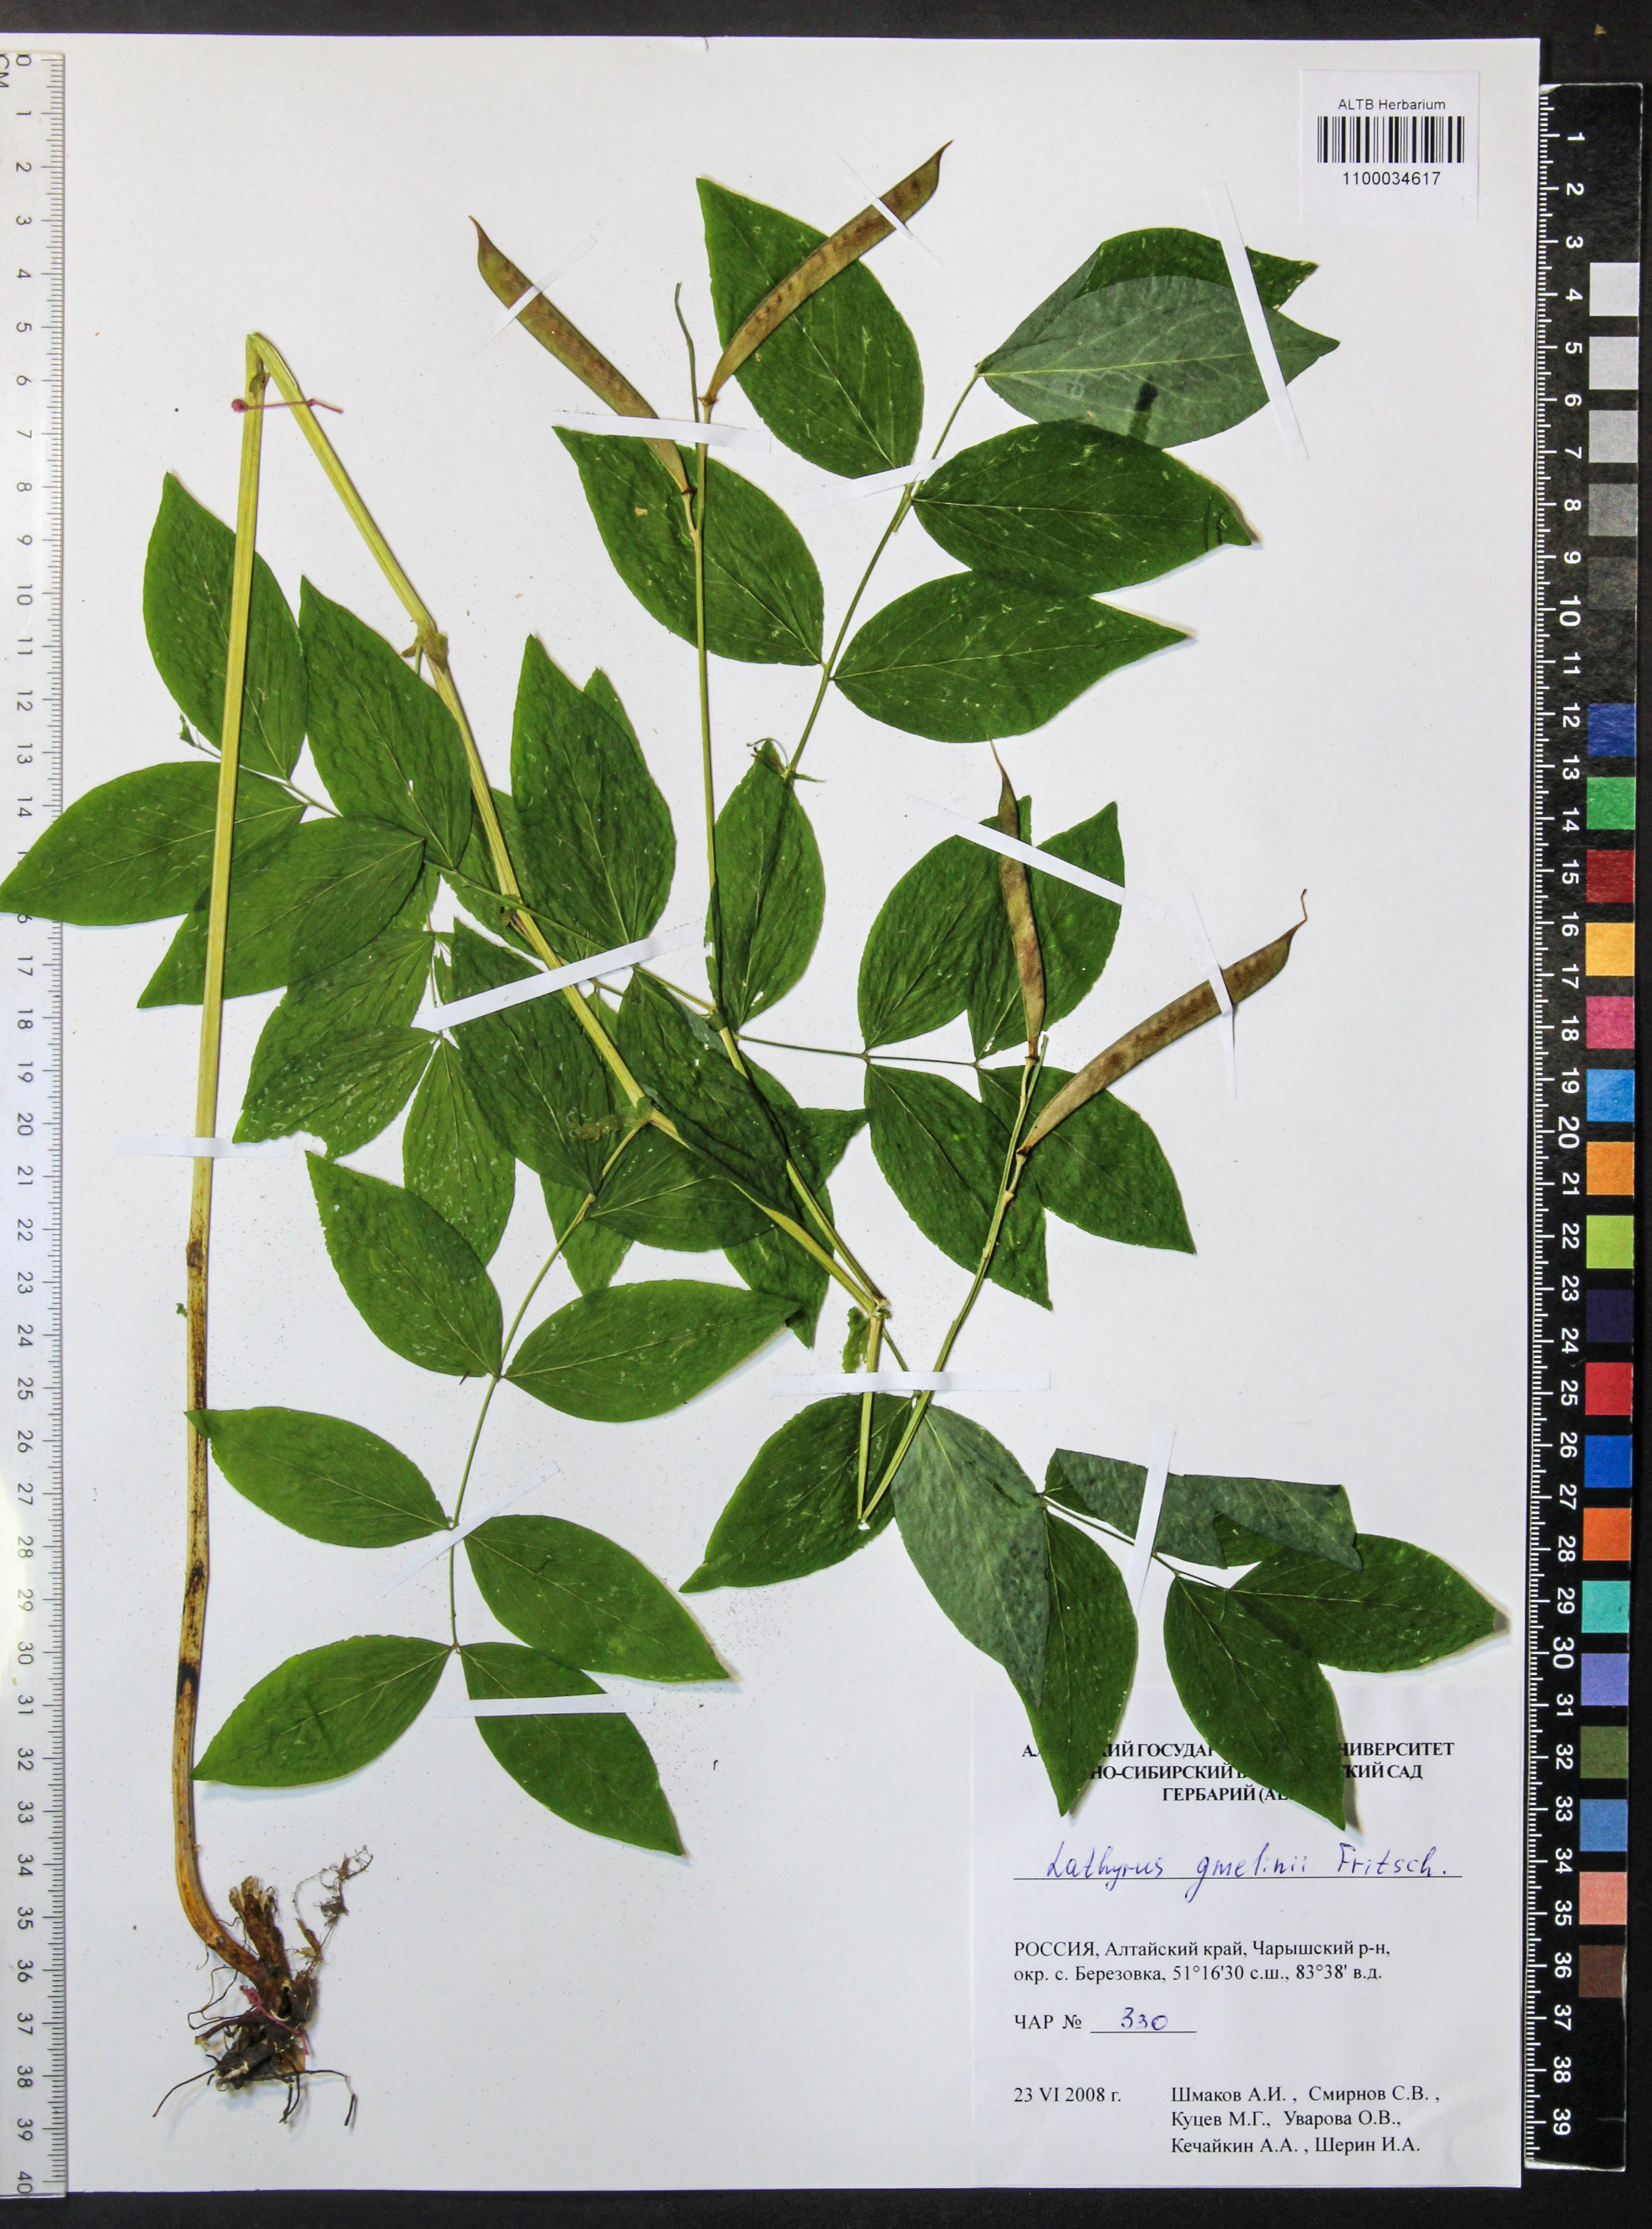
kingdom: Plantae
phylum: Tracheophyta
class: Magnoliopsida
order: Fabales
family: Fabaceae
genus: Lathyrus
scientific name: Lathyrus gmelinii
